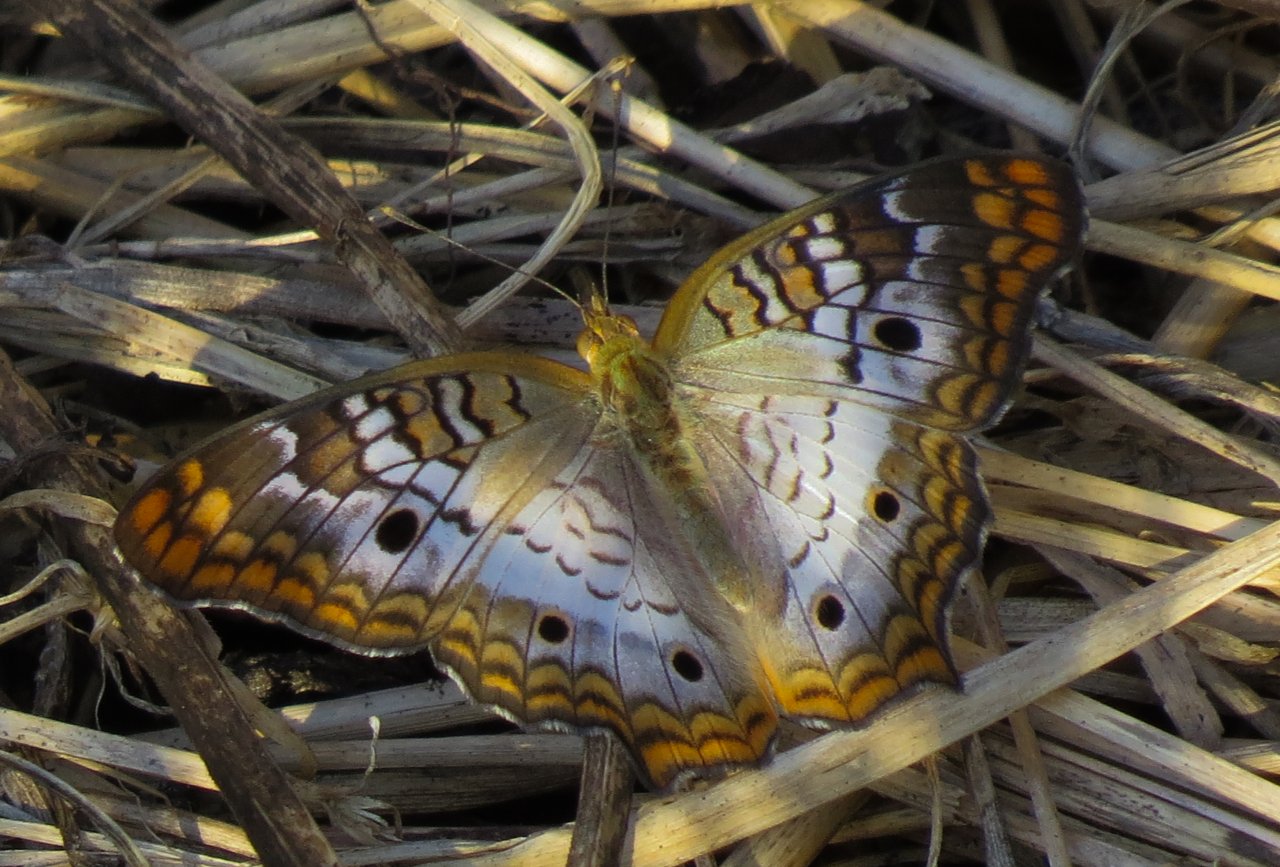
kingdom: Animalia
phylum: Arthropoda
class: Insecta
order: Lepidoptera
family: Nymphalidae
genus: Anartia
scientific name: Anartia jatrophae
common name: White Peacock
